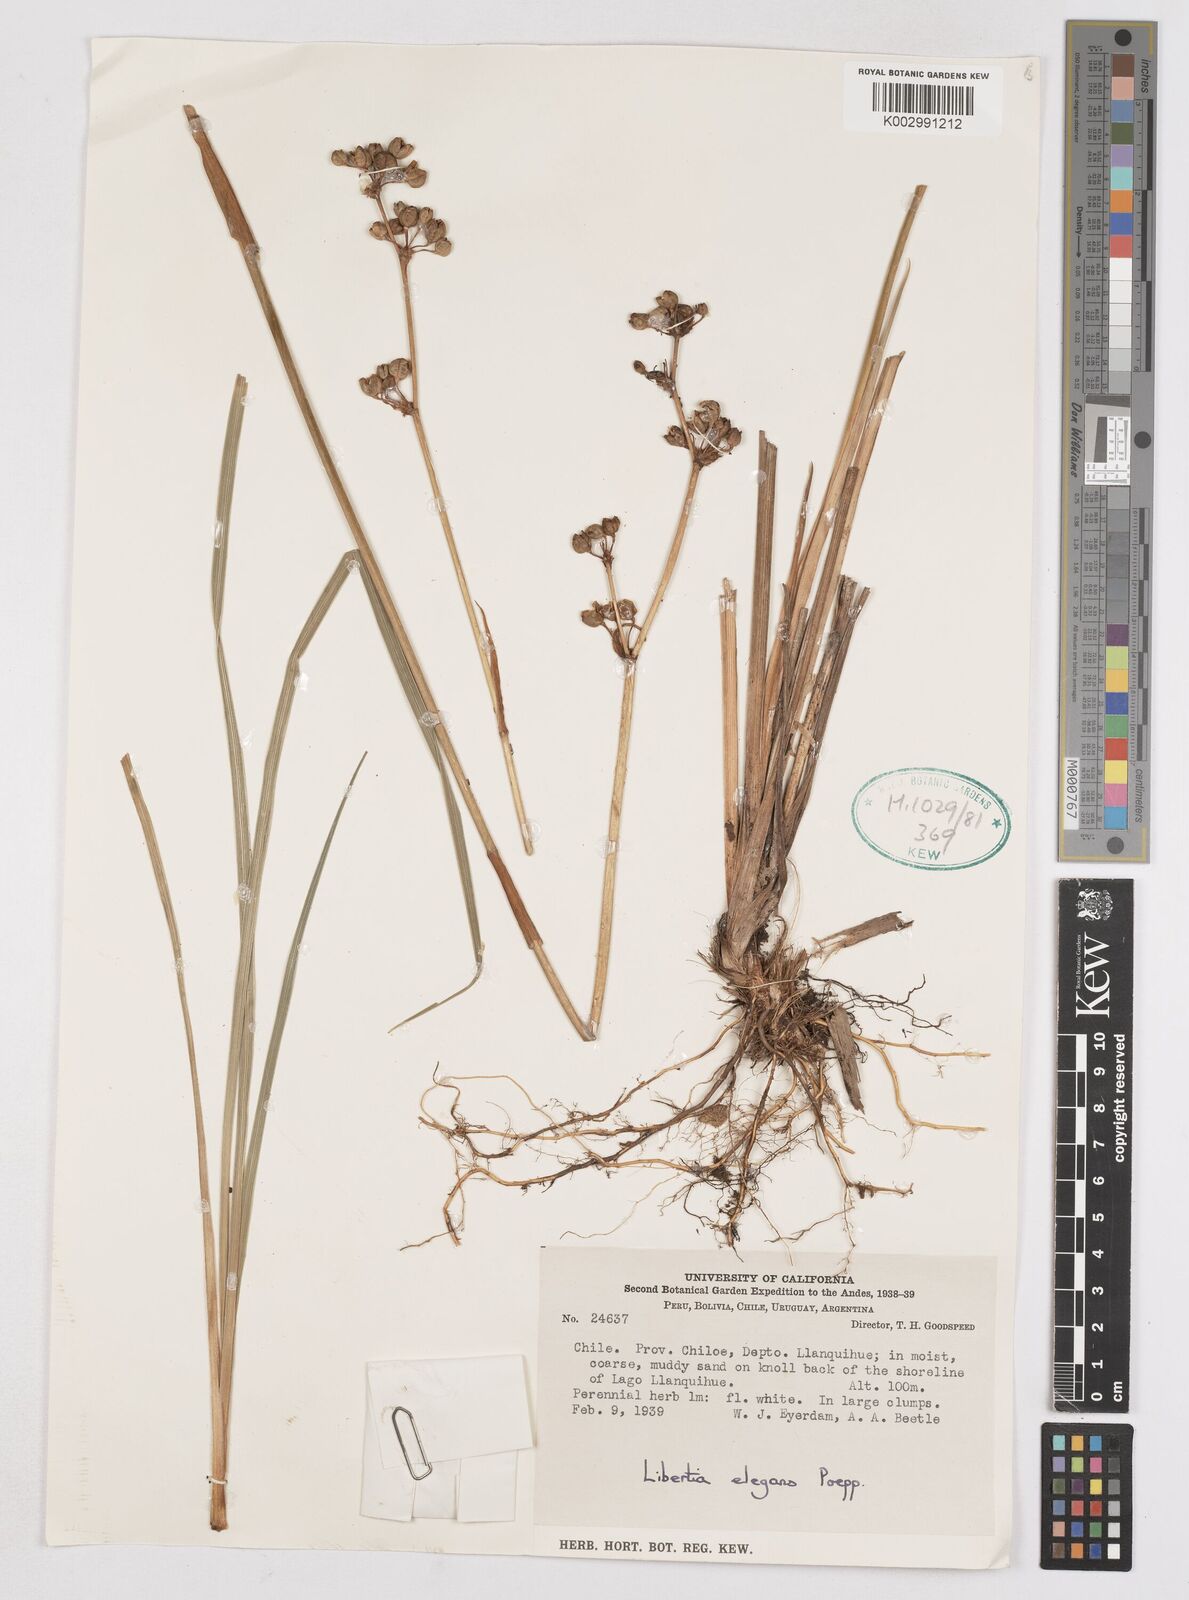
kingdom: Plantae
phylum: Tracheophyta
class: Liliopsida
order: Asparagales
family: Iridaceae
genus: Libertia
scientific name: Libertia chilensis
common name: Satin flower
